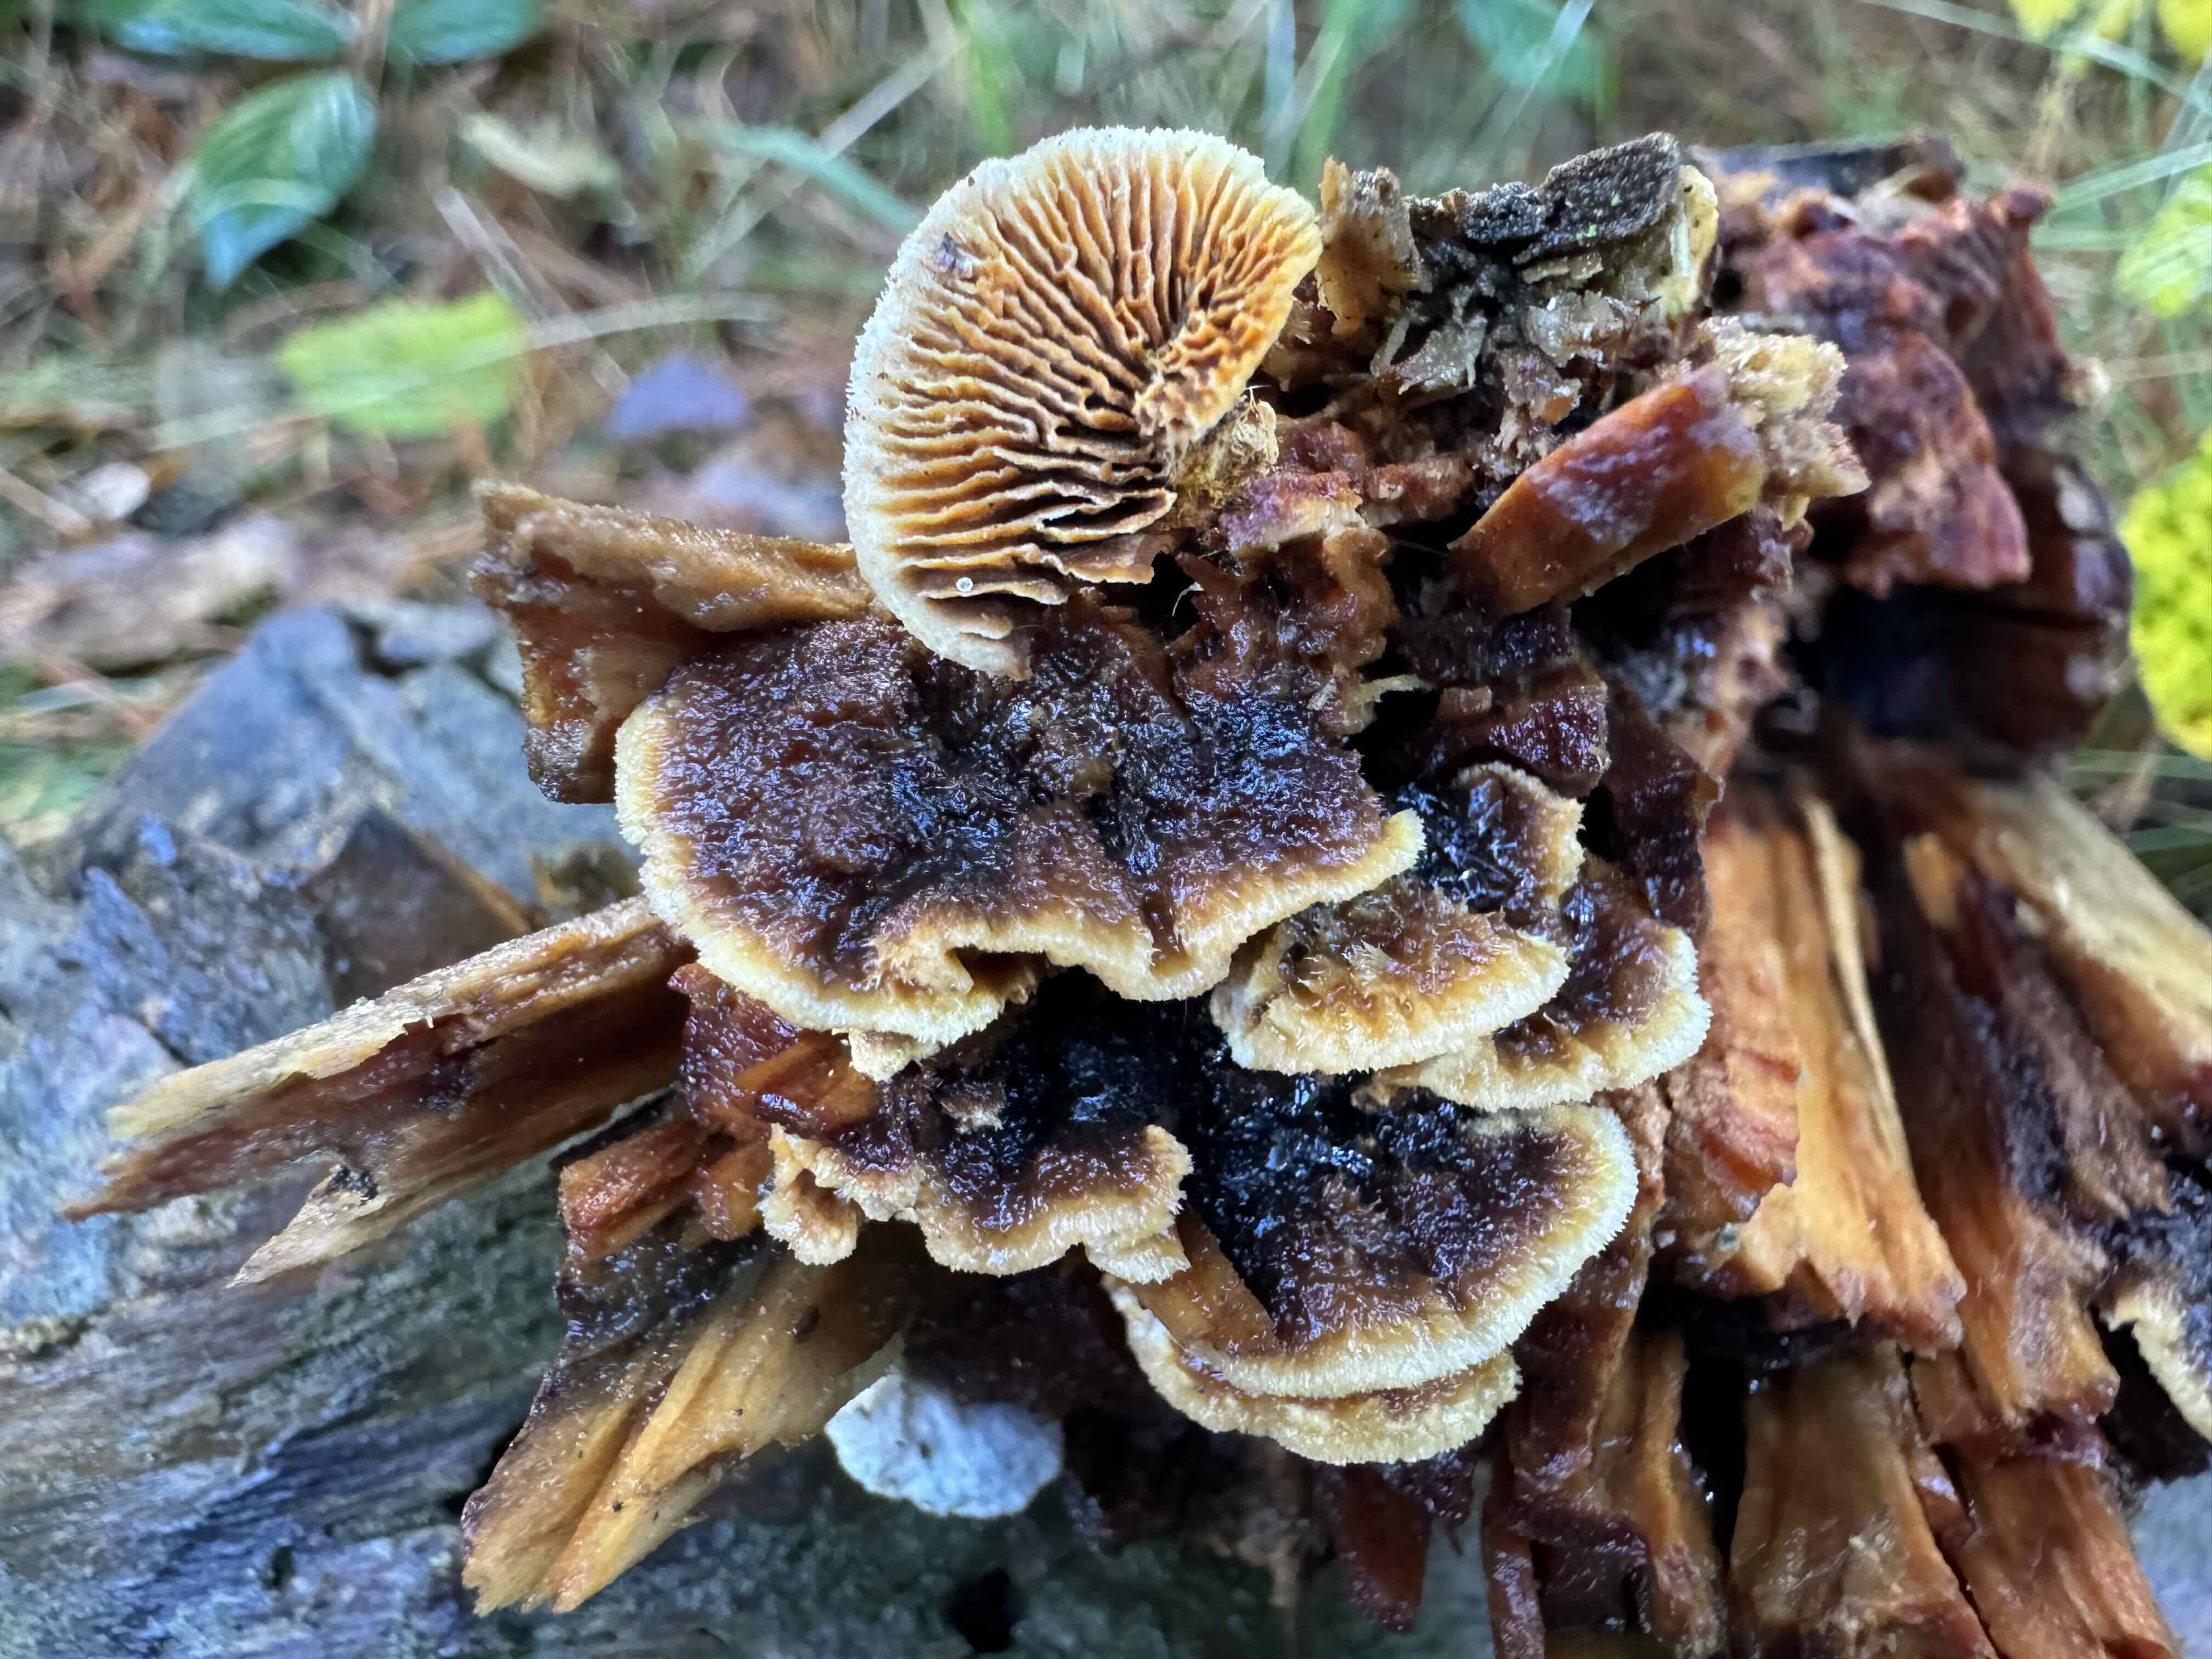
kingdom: Fungi
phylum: Basidiomycota
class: Agaricomycetes
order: Gloeophyllales
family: Gloeophyllaceae
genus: Gloeophyllum
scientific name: Gloeophyllum sepiarium
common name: fyrre-korkhat
